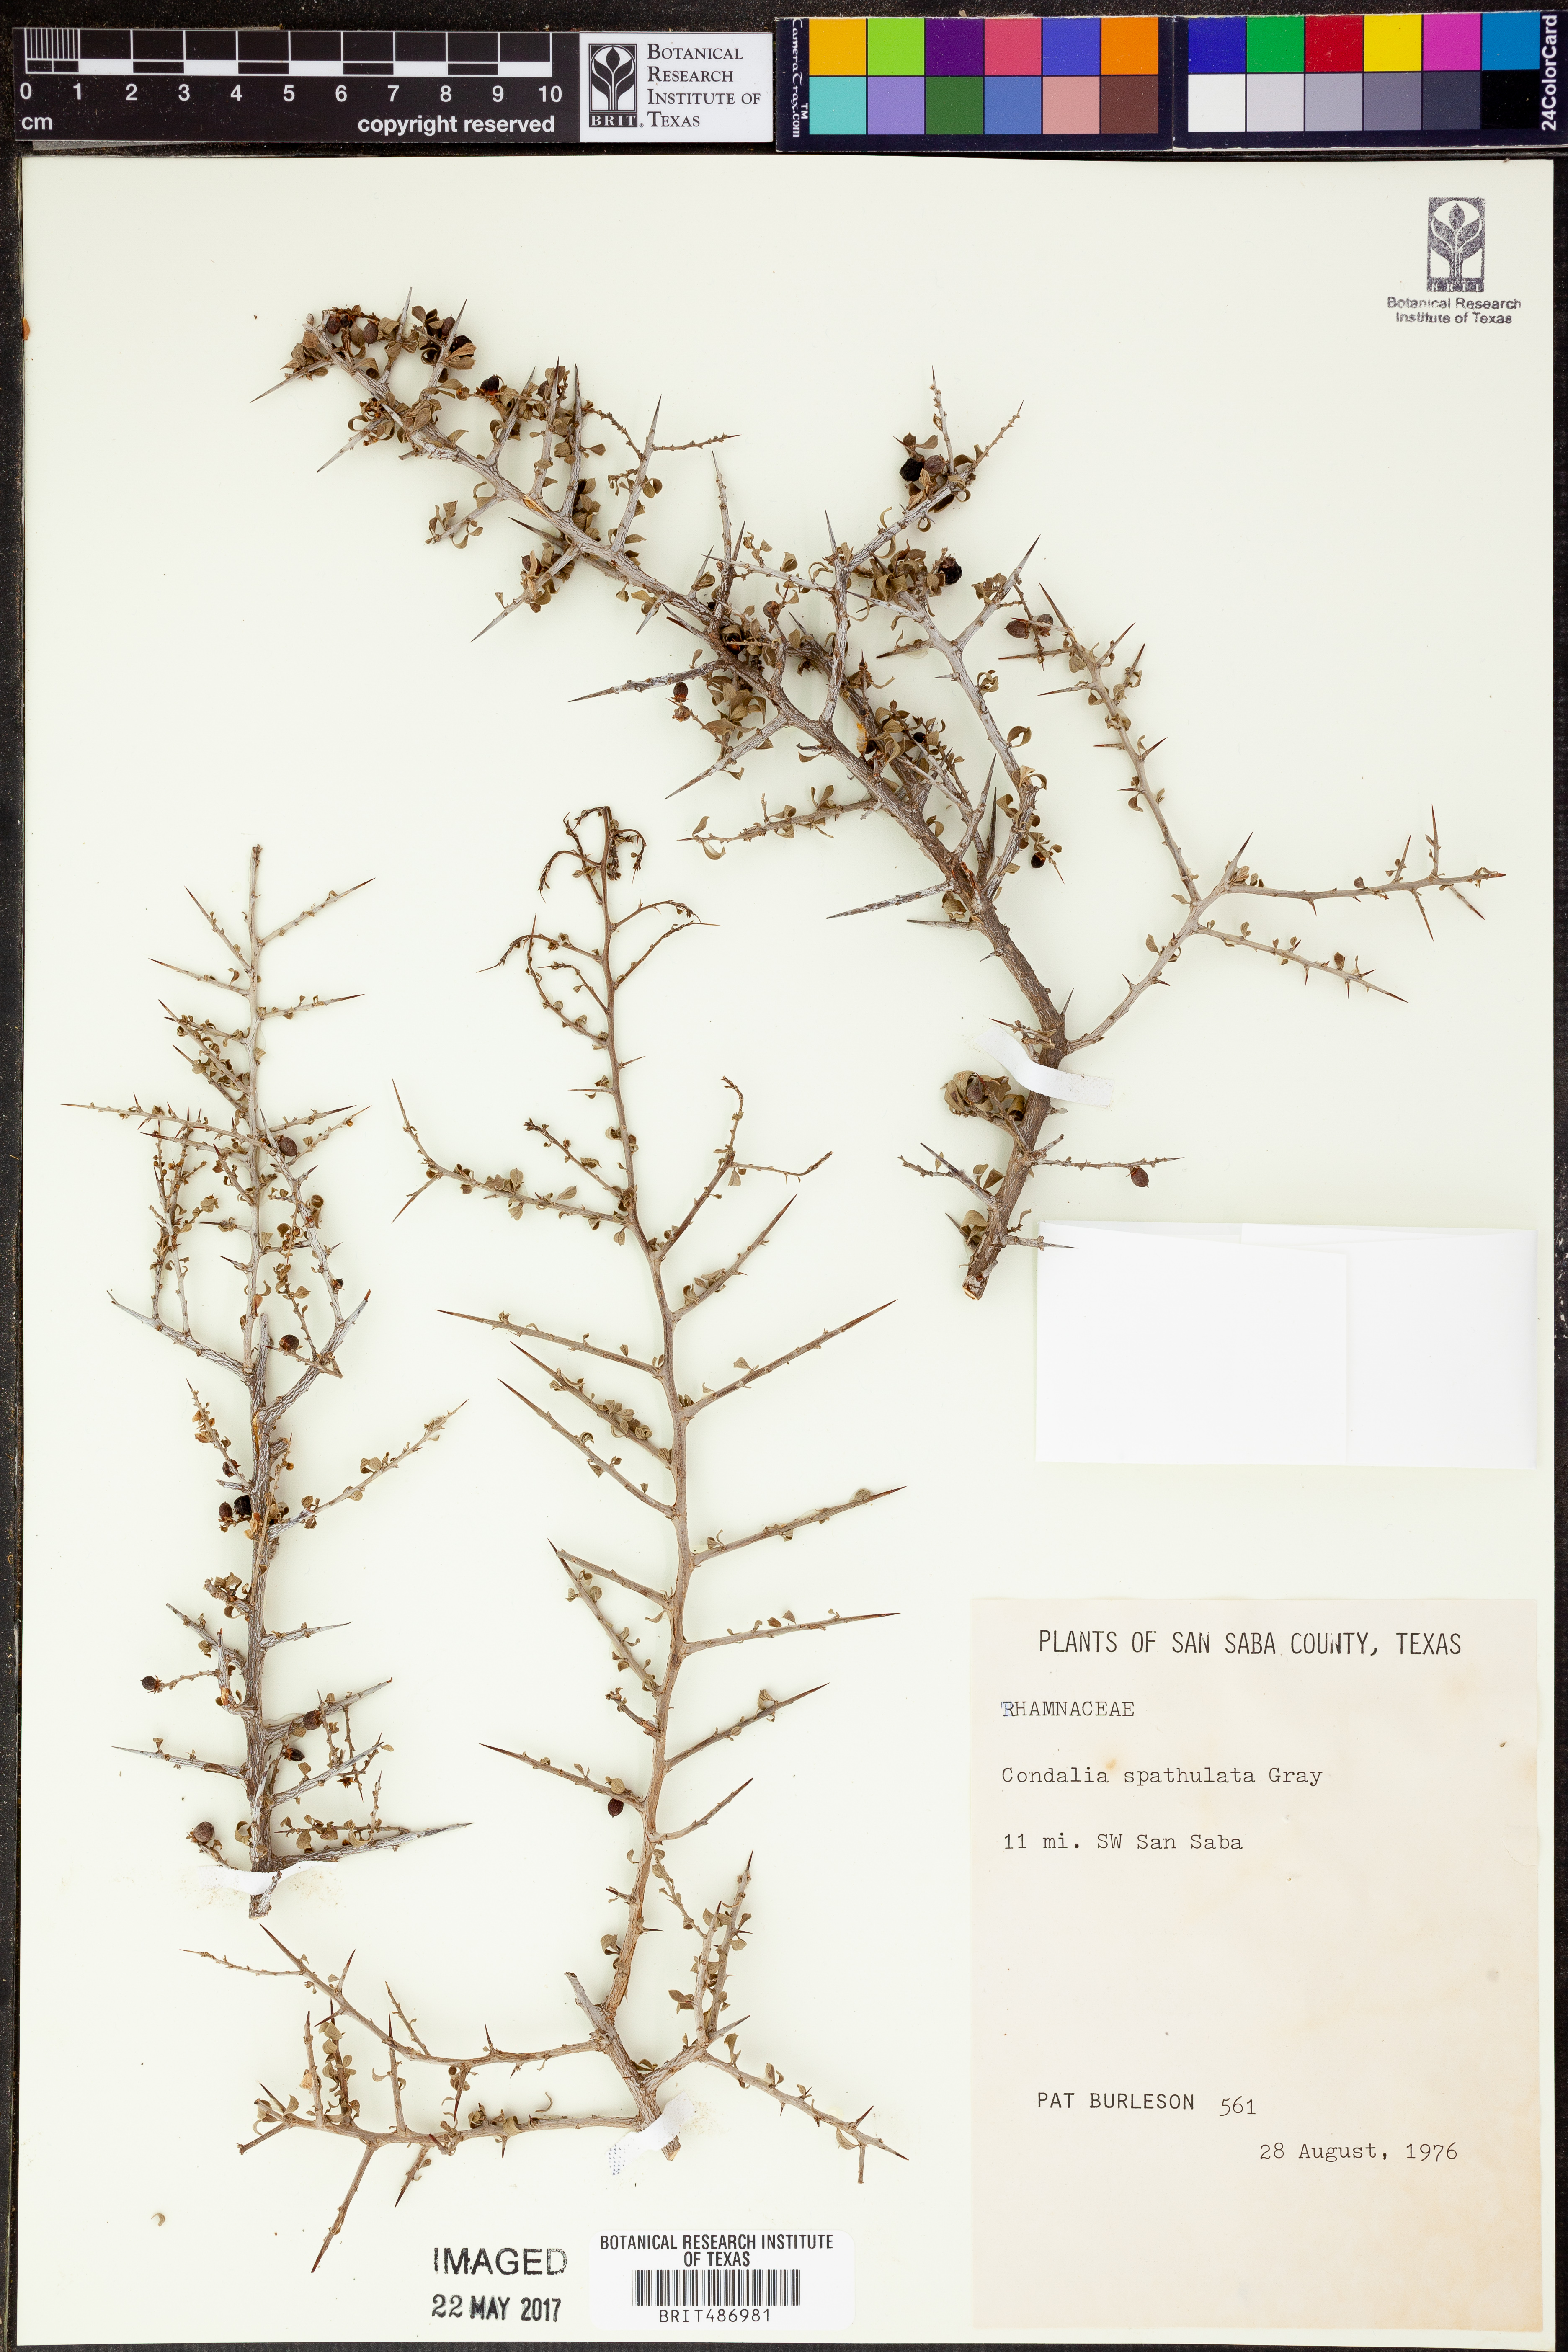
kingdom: Plantae
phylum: Tracheophyta
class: Magnoliopsida
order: Rosales
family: Rhamnaceae
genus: Condalia
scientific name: Condalia spathulata
